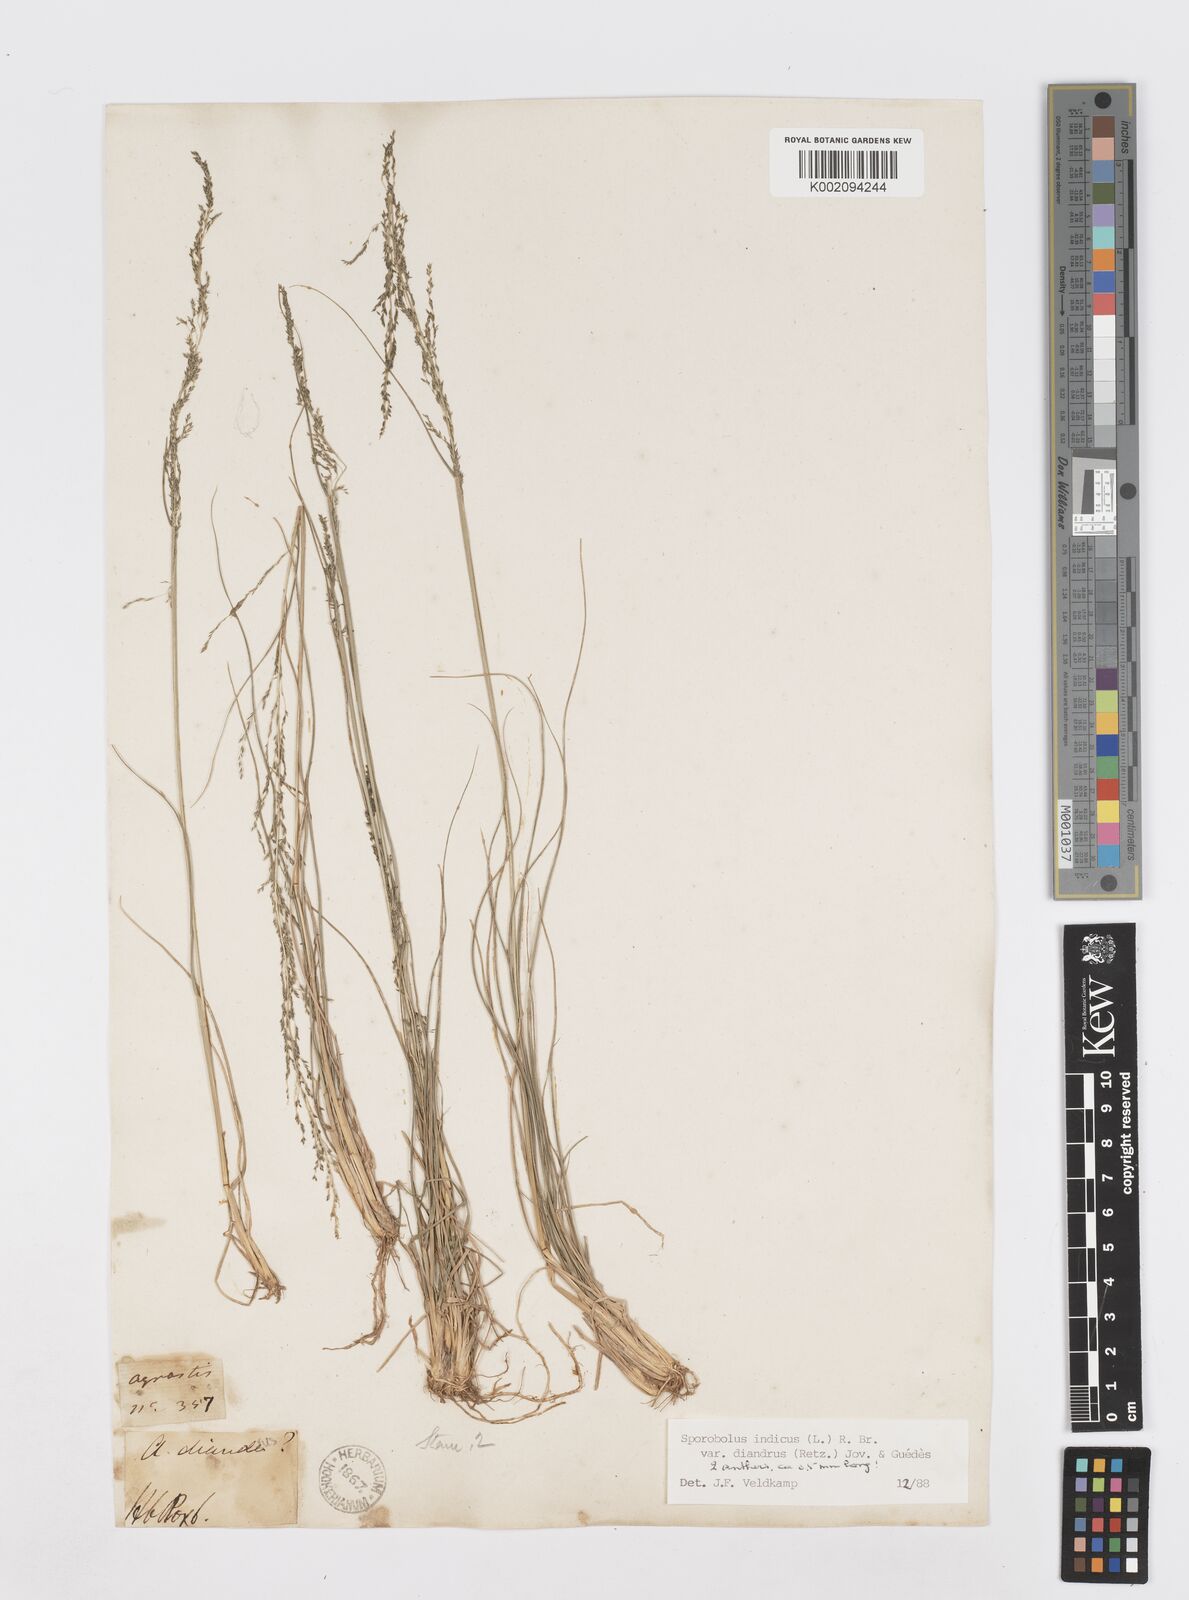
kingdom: Plantae
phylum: Tracheophyta
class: Liliopsida
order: Poales
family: Poaceae
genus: Sporobolus
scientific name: Sporobolus
